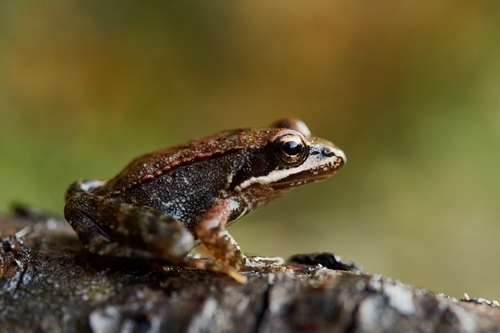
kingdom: Animalia
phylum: Chordata
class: Amphibia
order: Anura
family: Ranidae
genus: Rana
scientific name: Rana iberica
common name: Iberian frog
